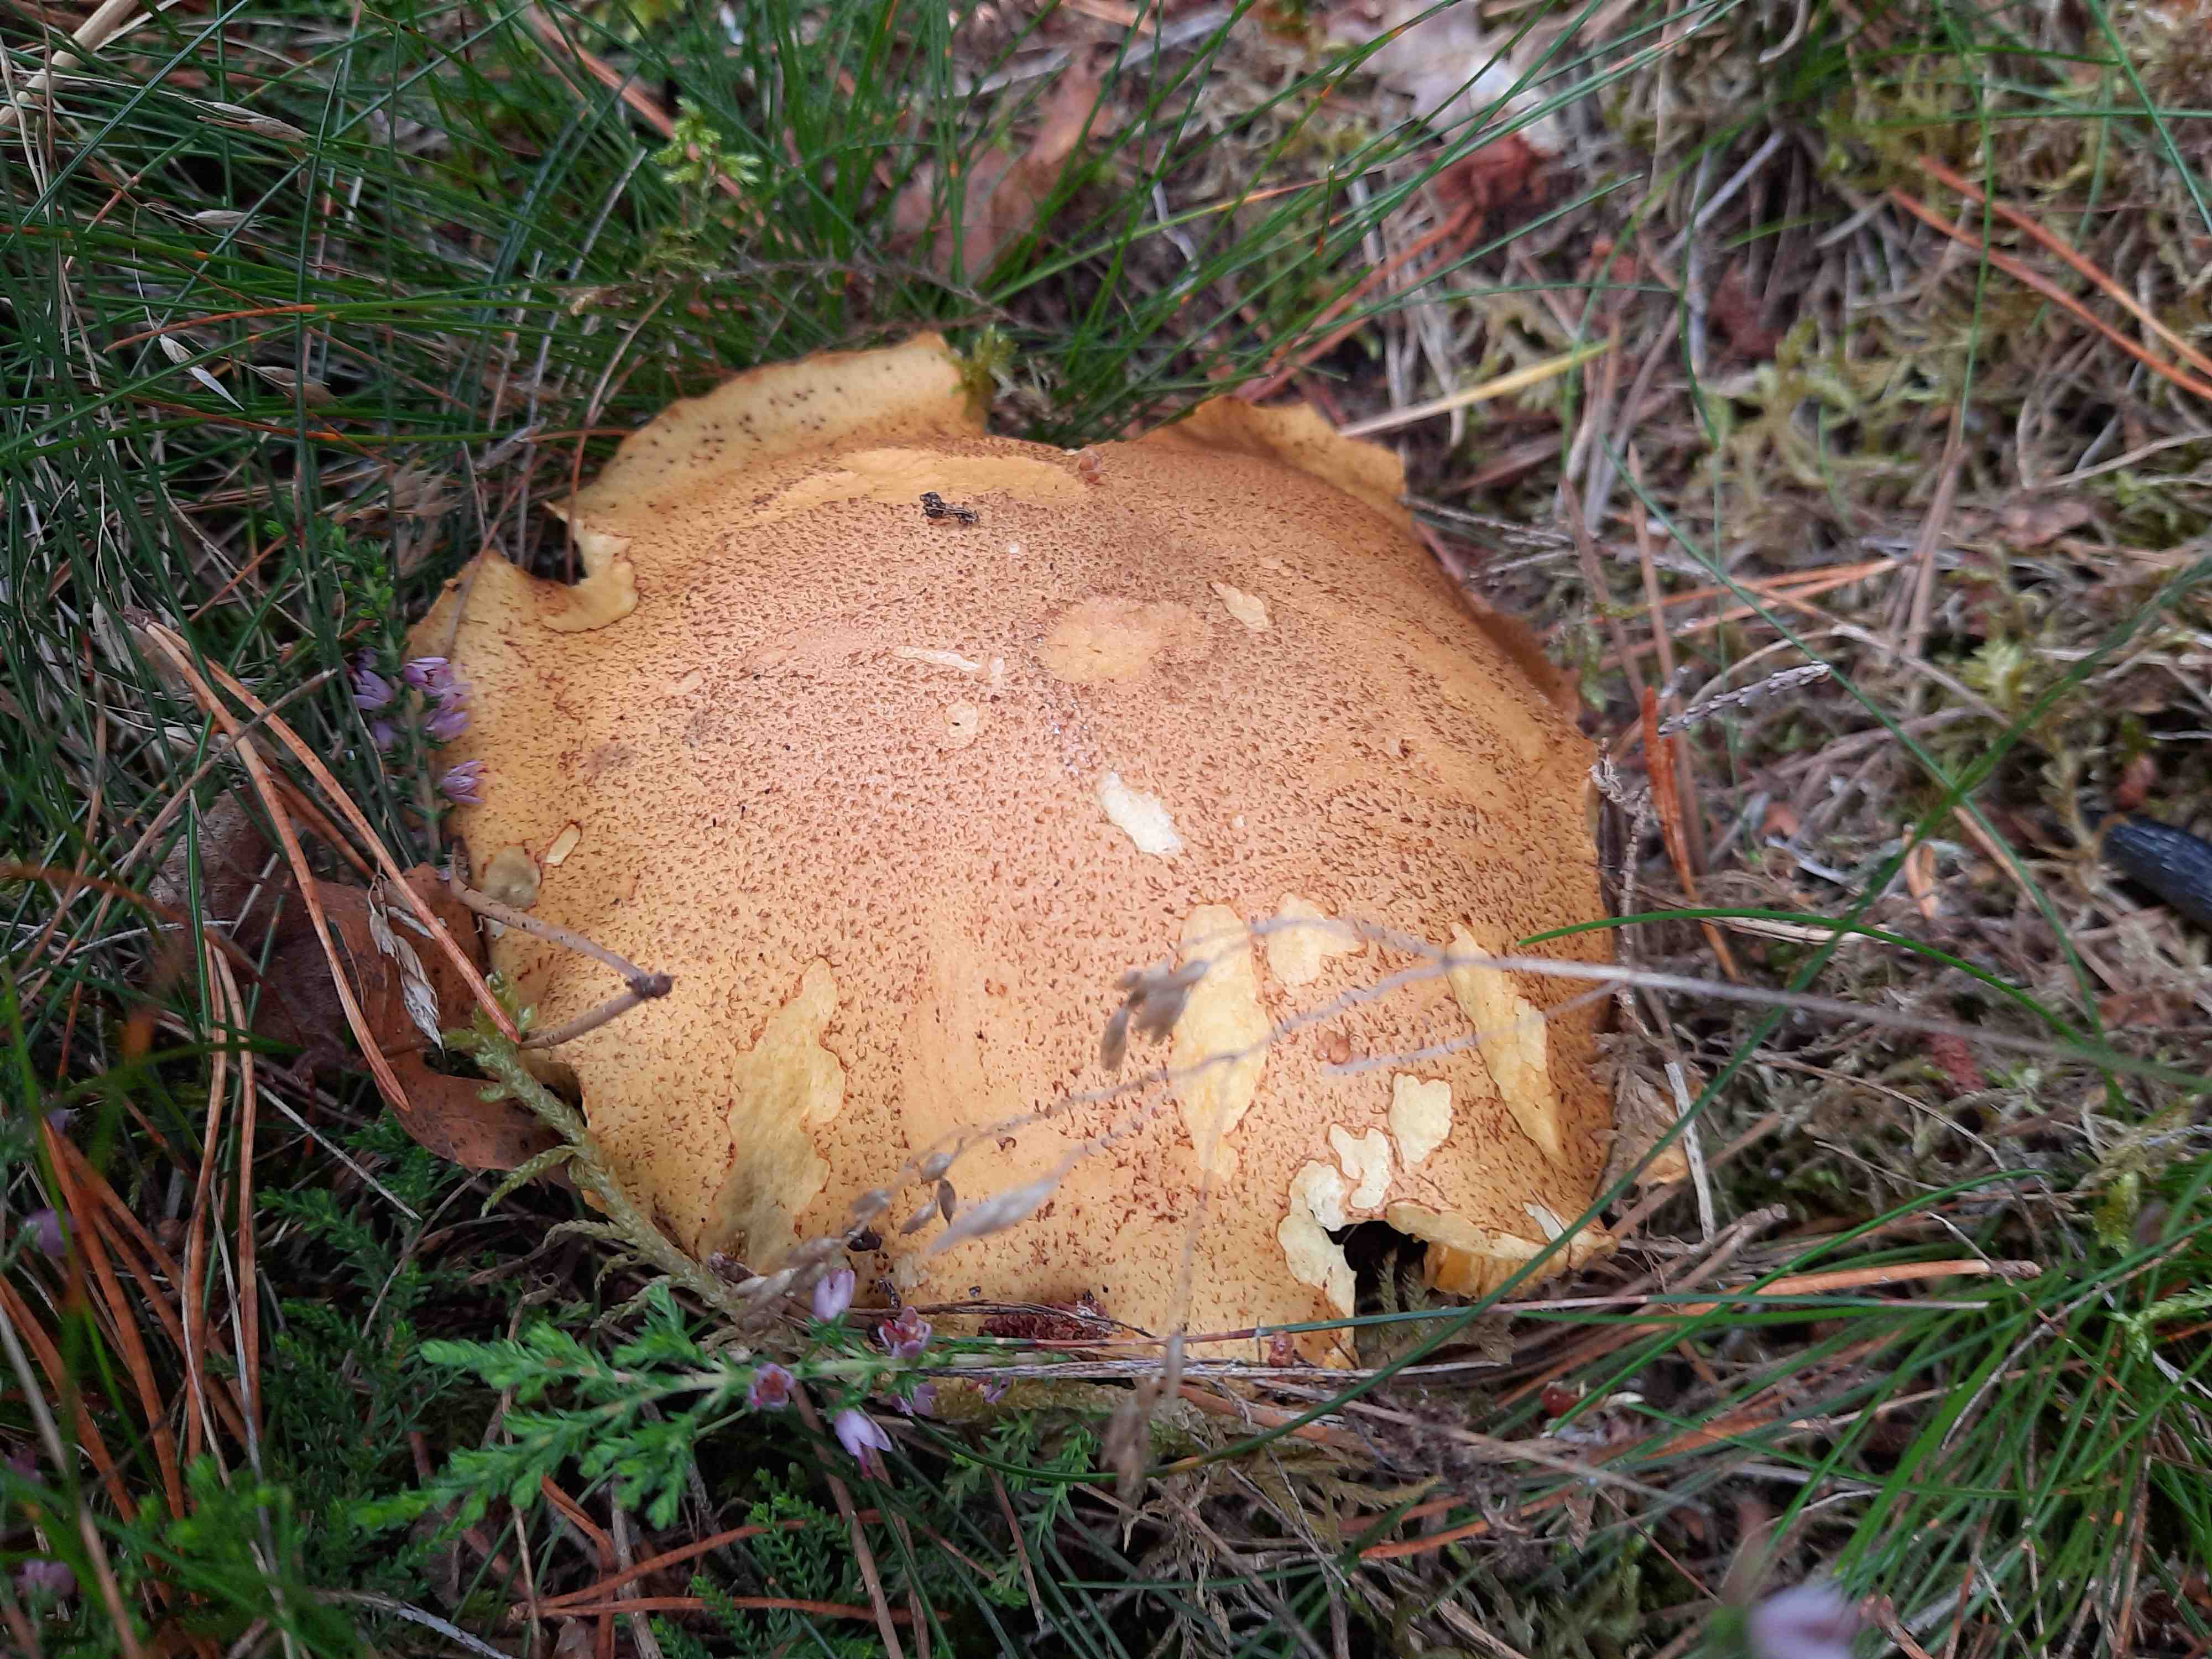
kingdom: Fungi
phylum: Basidiomycota
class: Agaricomycetes
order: Boletales
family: Suillaceae
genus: Suillus
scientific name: Suillus variegatus
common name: broget slimrørhat
